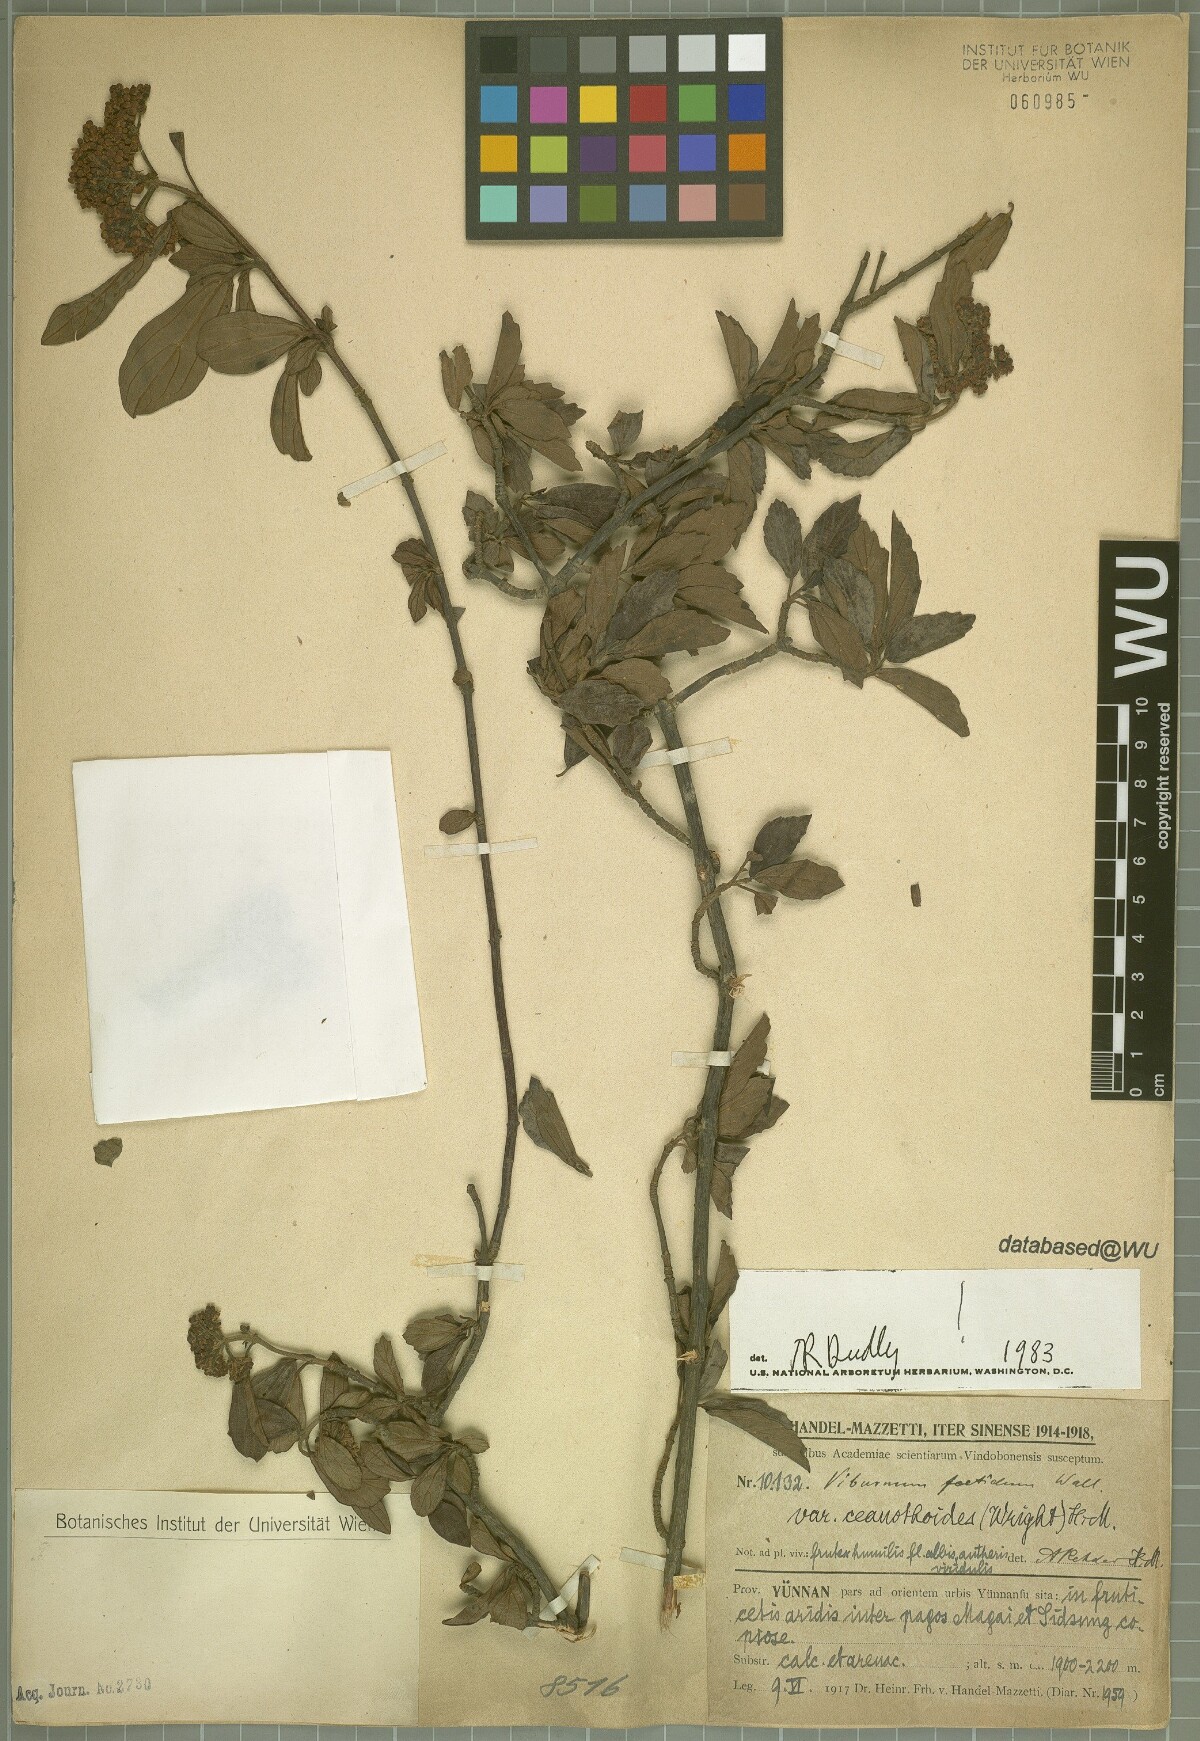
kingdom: Plantae
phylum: Tracheophyta
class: Magnoliopsida
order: Dipsacales
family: Viburnaceae
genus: Viburnum
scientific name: Viburnum foetidum
